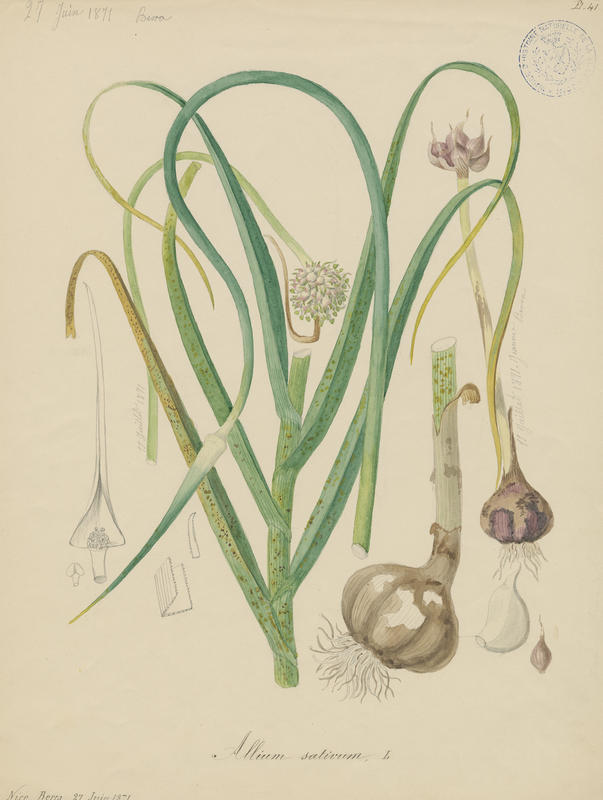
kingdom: Plantae
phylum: Tracheophyta
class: Liliopsida
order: Asparagales
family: Amaryllidaceae
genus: Allium
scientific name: Allium sativum
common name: Garlic
